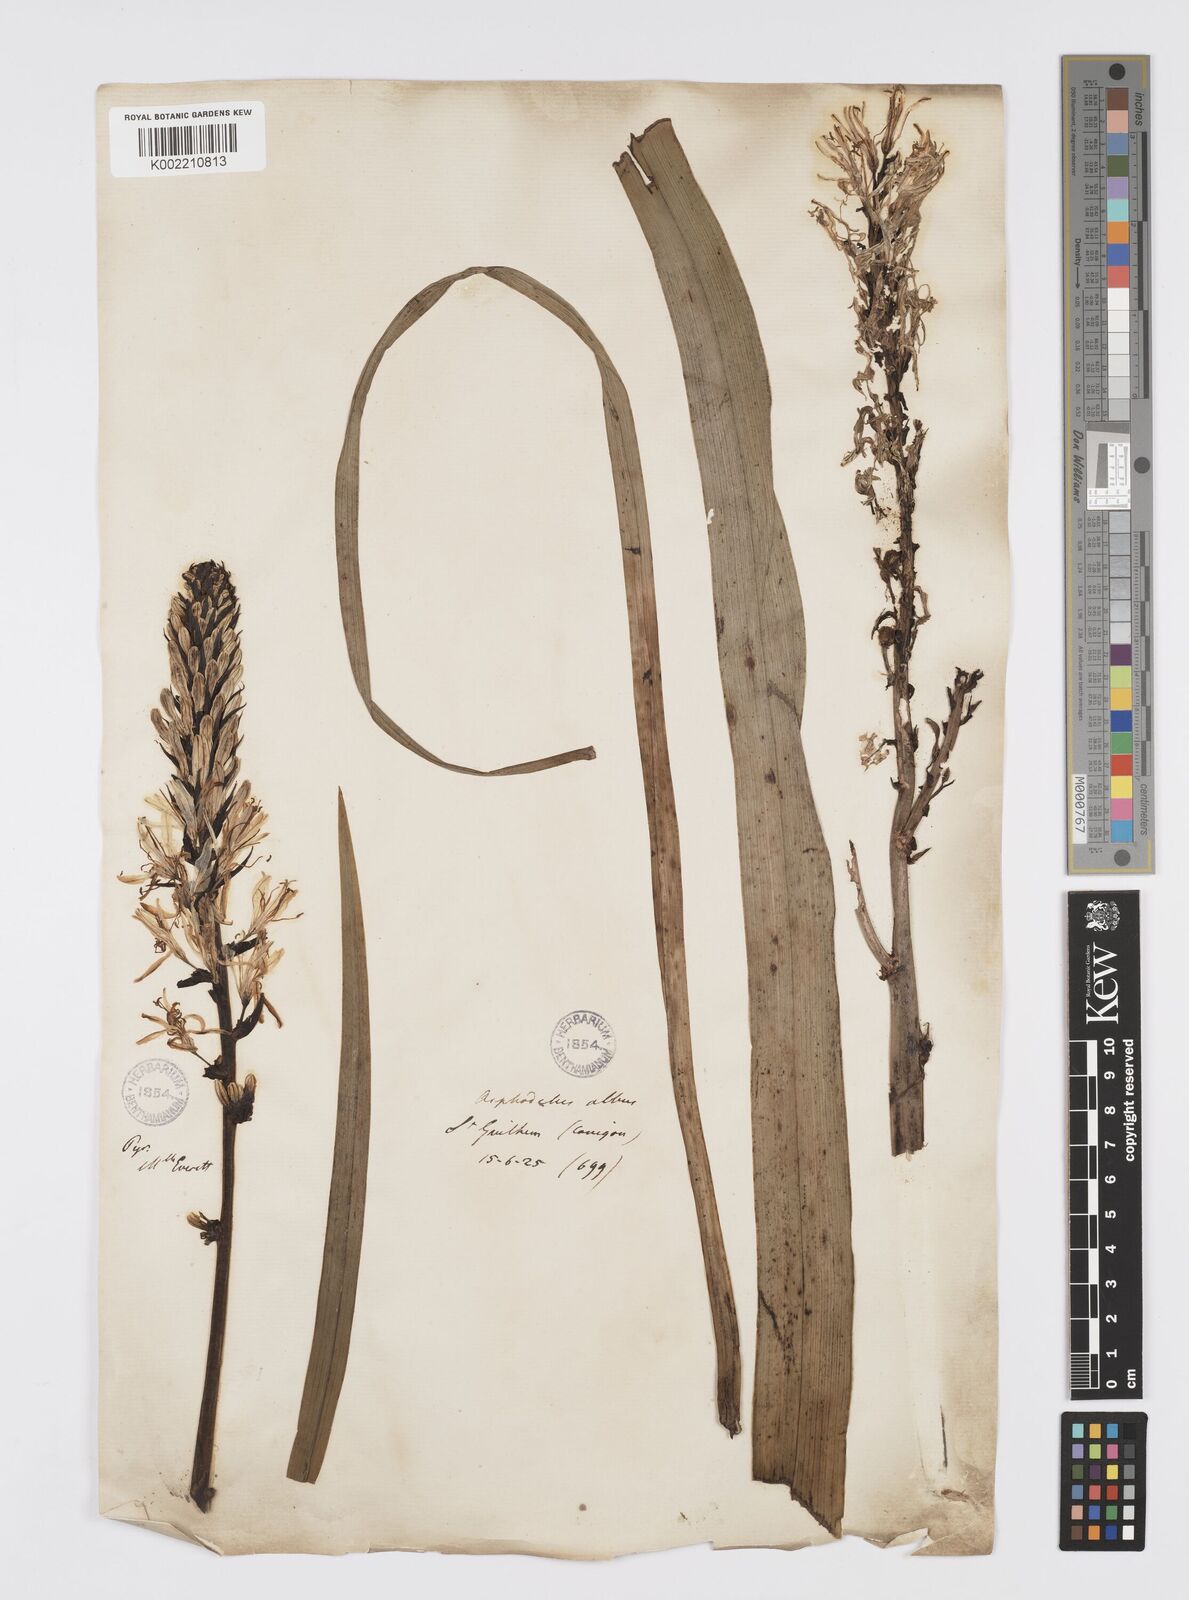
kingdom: Plantae
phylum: Tracheophyta
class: Liliopsida
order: Asparagales
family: Asphodelaceae
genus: Asphodelus
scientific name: Asphodelus cerasifer
